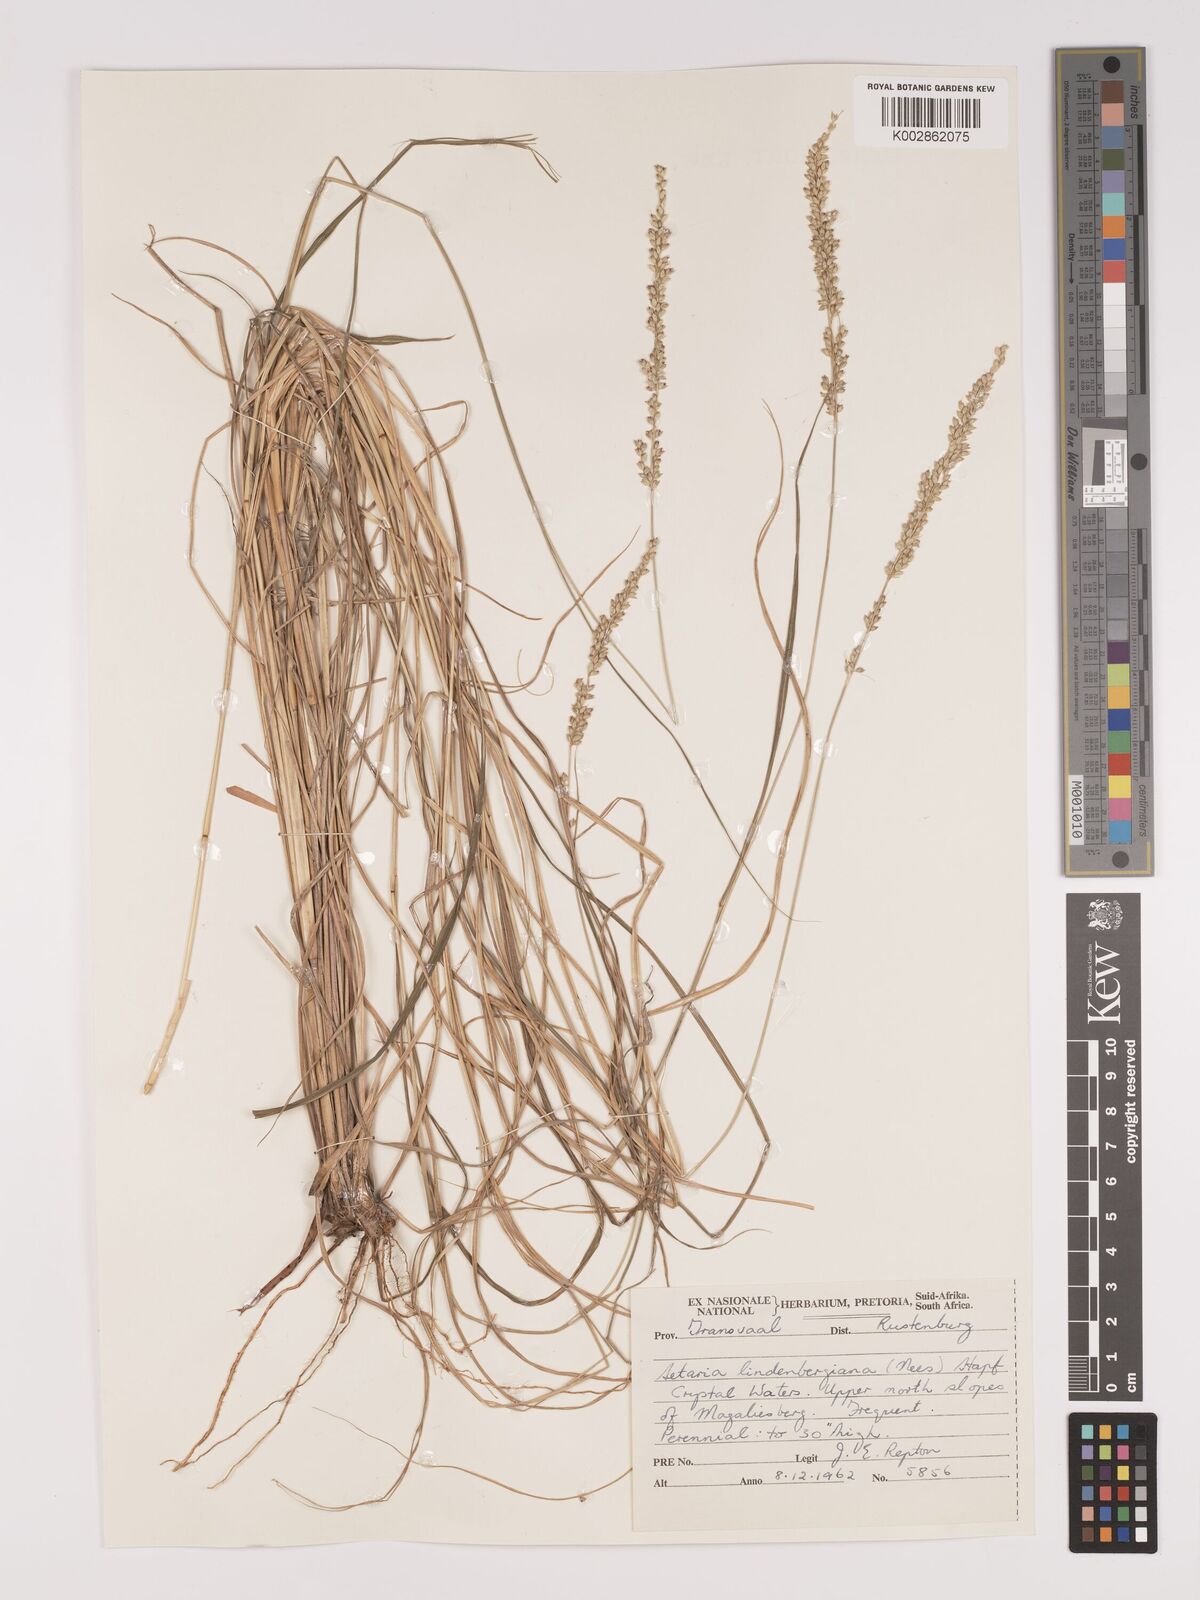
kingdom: Plantae
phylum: Tracheophyta
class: Liliopsida
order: Poales
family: Poaceae
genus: Setaria
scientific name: Setaria lindenbergiana
